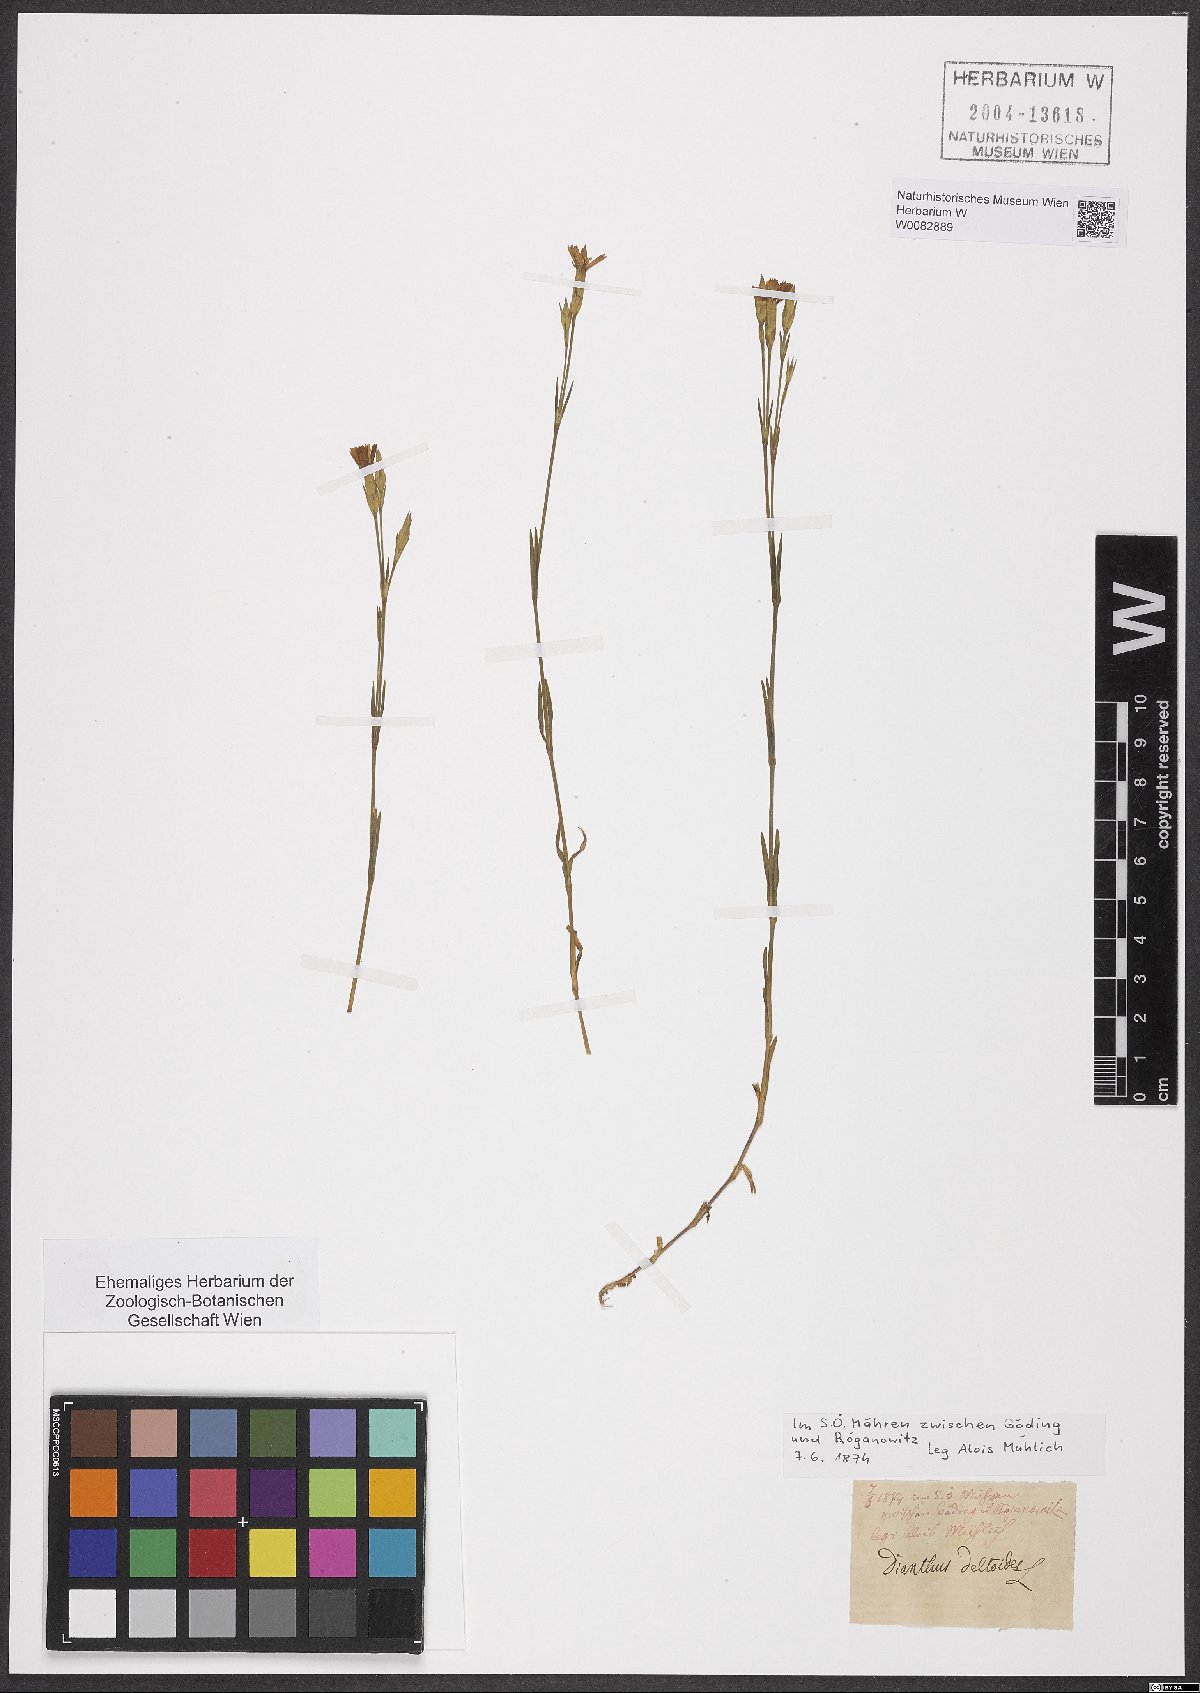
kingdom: Plantae
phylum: Tracheophyta
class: Magnoliopsida
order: Caryophyllales
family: Caryophyllaceae
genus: Dianthus
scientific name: Dianthus deltoides
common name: Maiden pink
